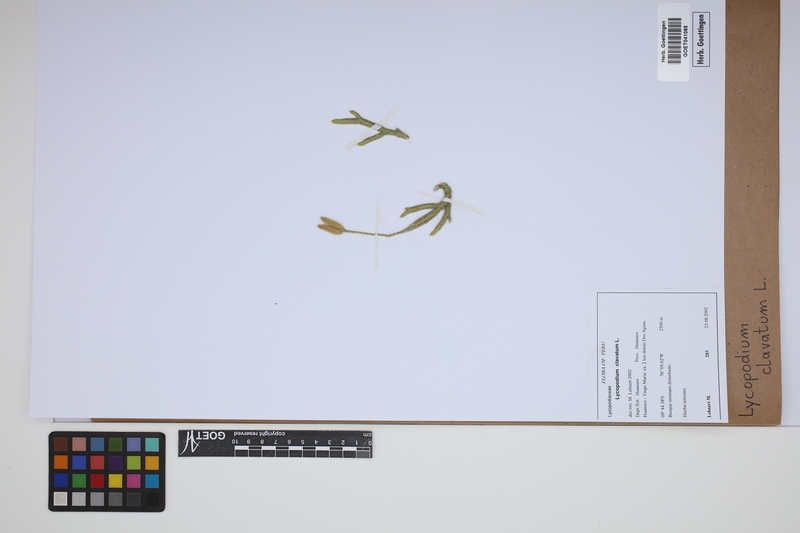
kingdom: Plantae
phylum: Tracheophyta
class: Lycopodiopsida
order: Lycopodiales
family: Lycopodiaceae
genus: Lycopodium
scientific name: Lycopodium clavatum
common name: Stag's-horn clubmoss
